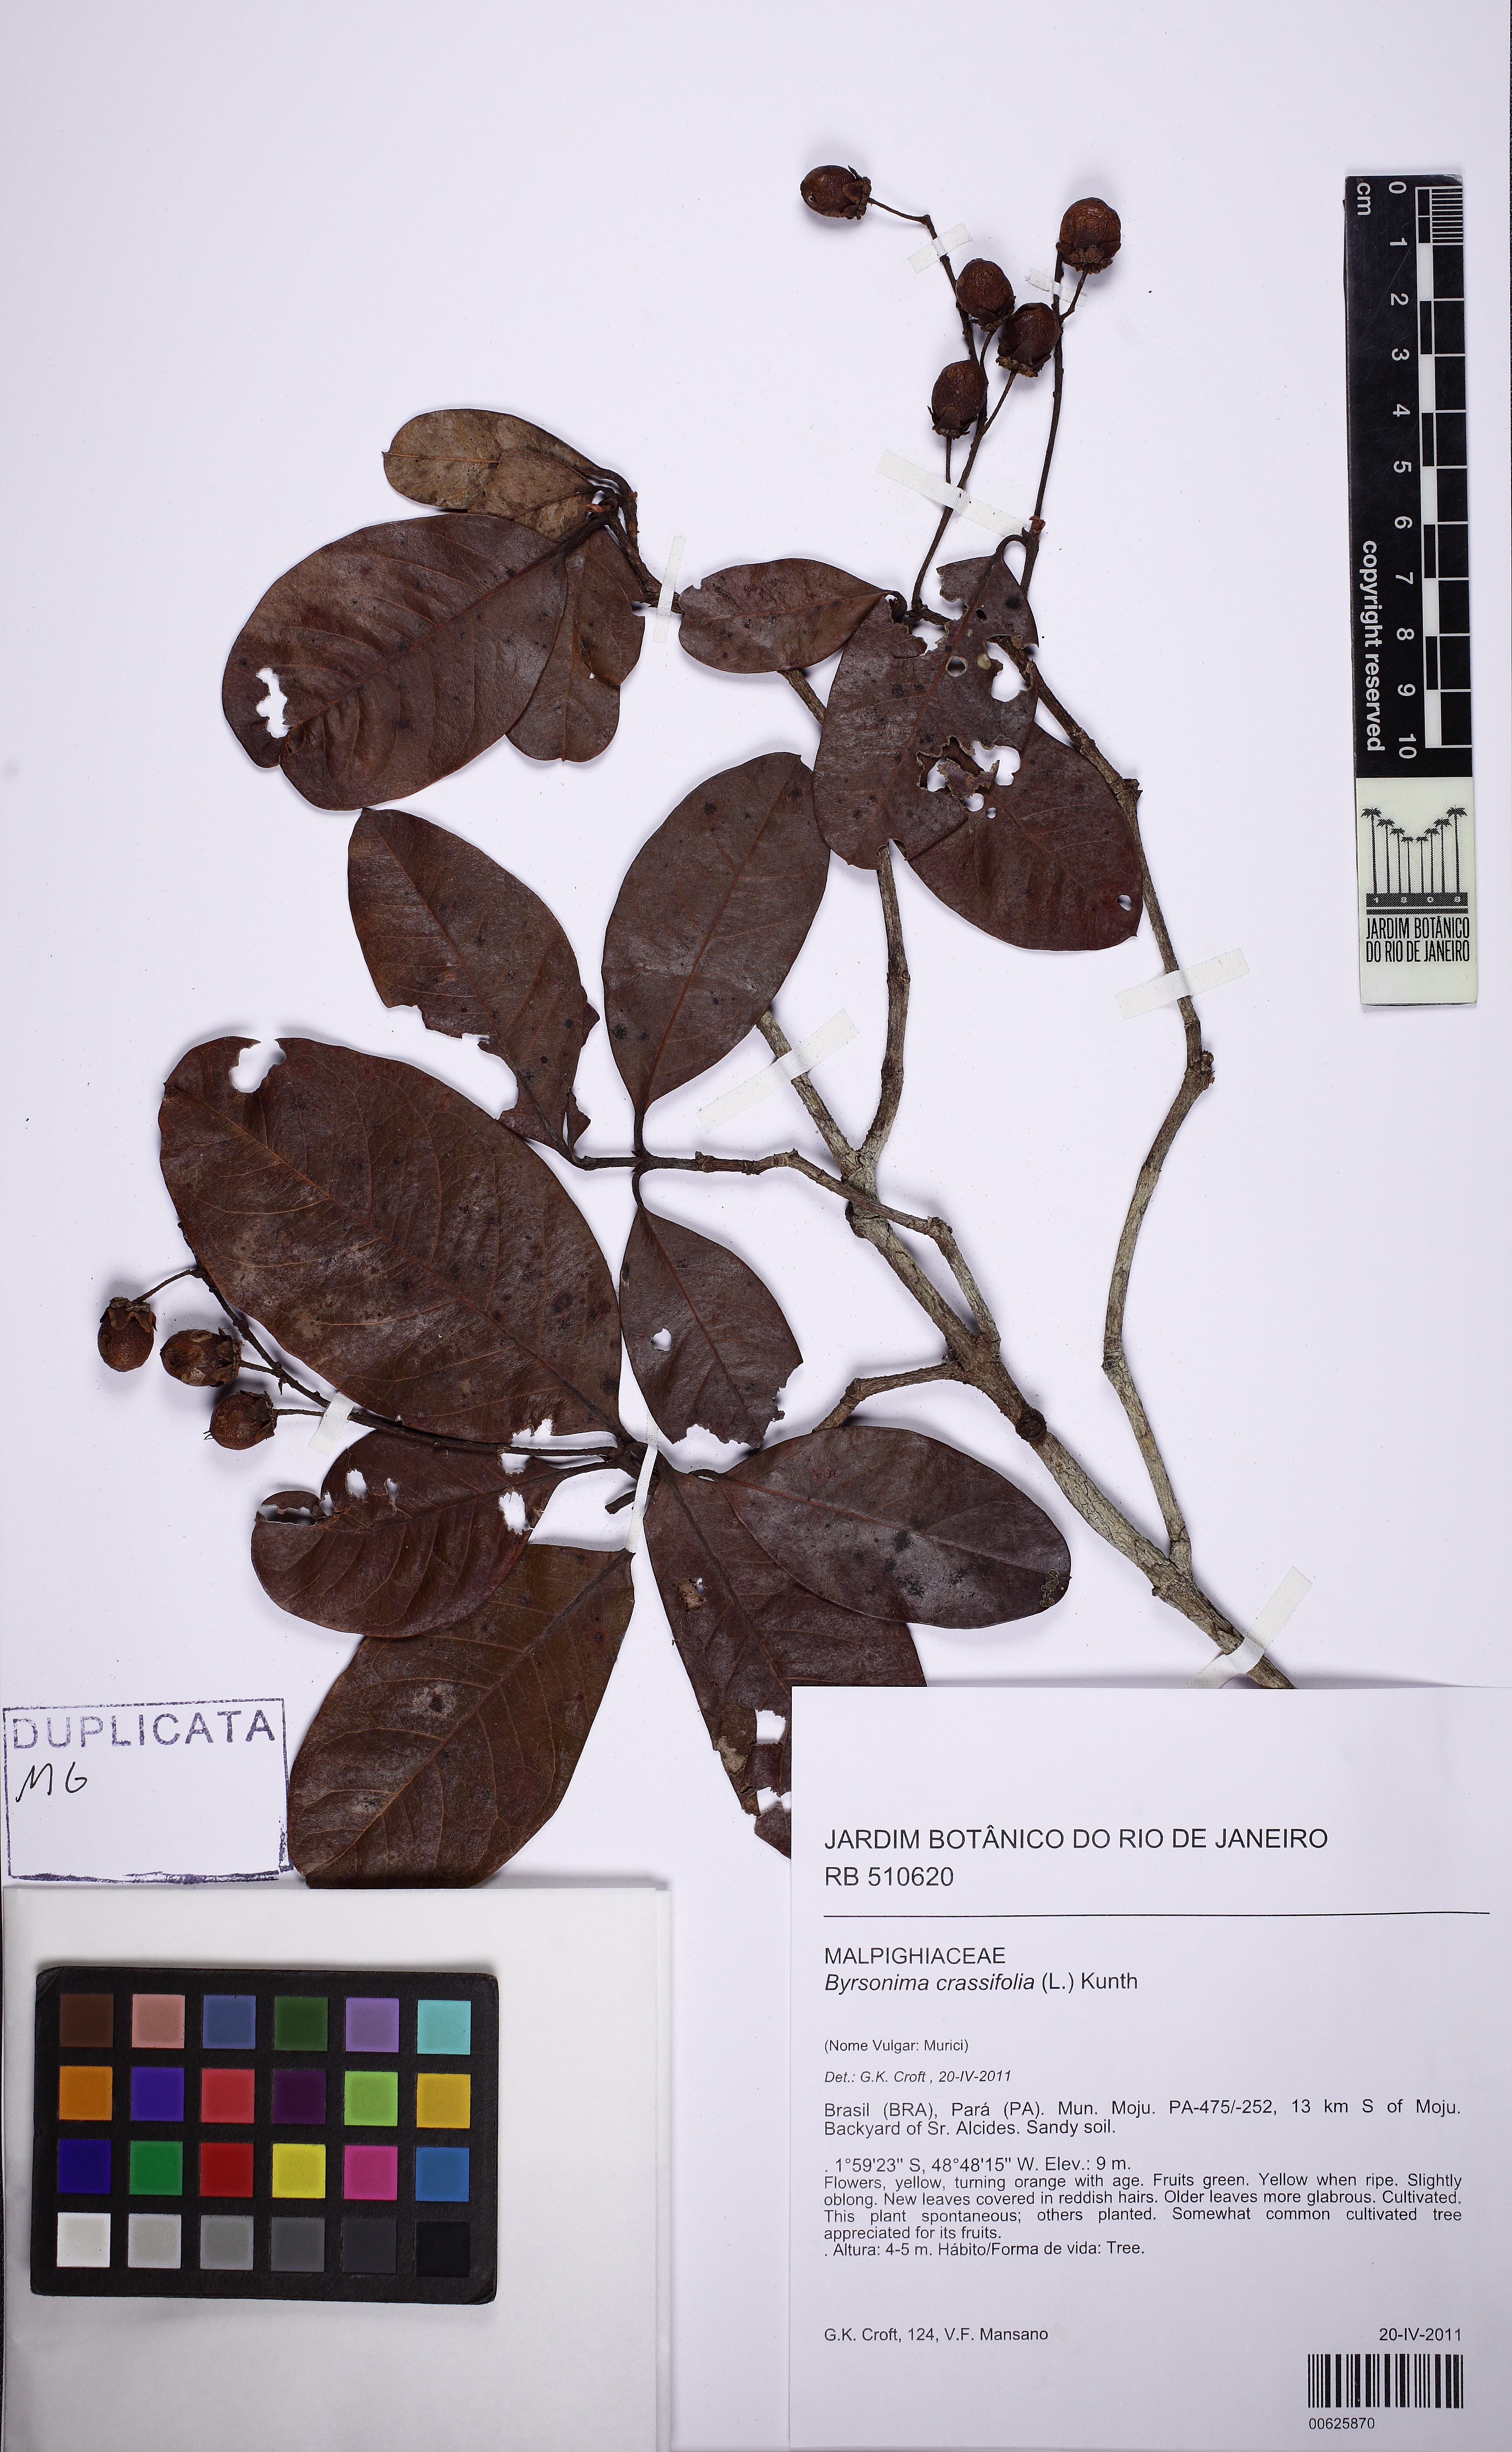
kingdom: Plantae
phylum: Tracheophyta
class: Magnoliopsida
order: Malpighiales
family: Malpighiaceae
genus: Byrsonima
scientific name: Byrsonima crassifolia
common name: Golden spoon
